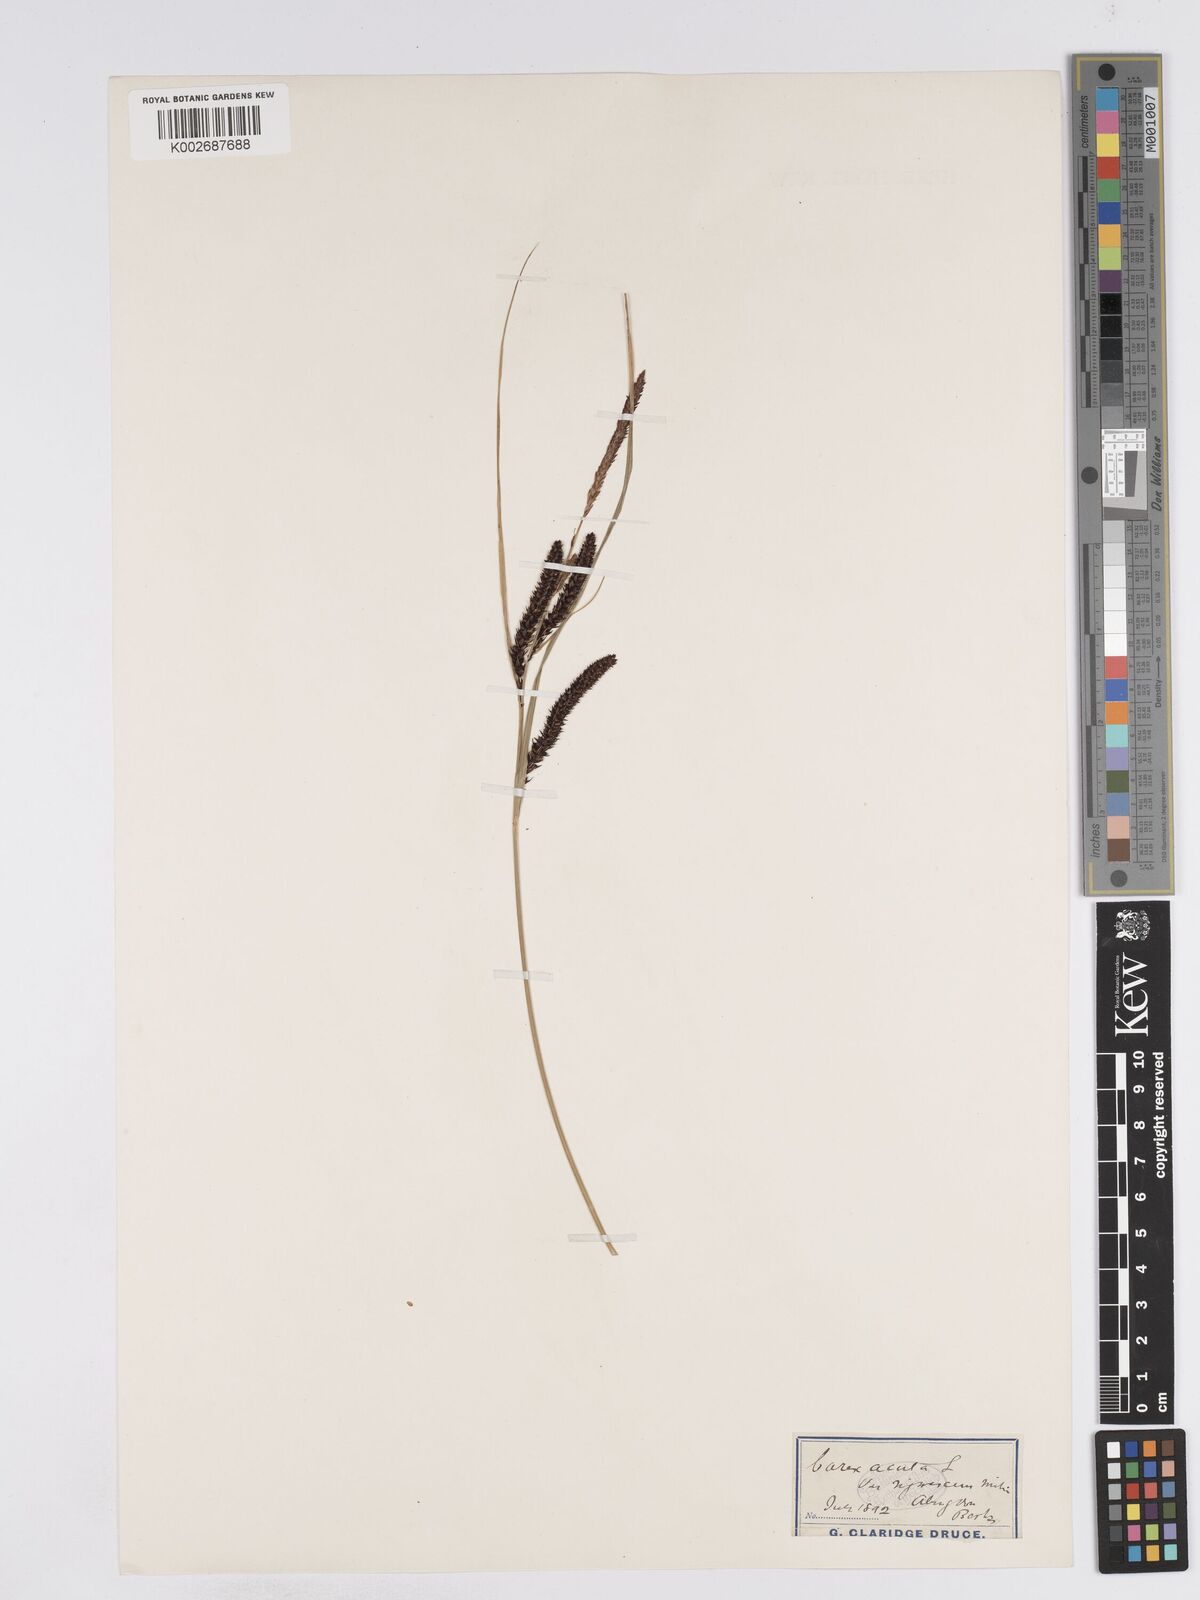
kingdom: Plantae
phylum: Tracheophyta
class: Liliopsida
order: Poales
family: Cyperaceae
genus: Carex
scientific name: Carex acuta
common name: Slender tufted-sedge
